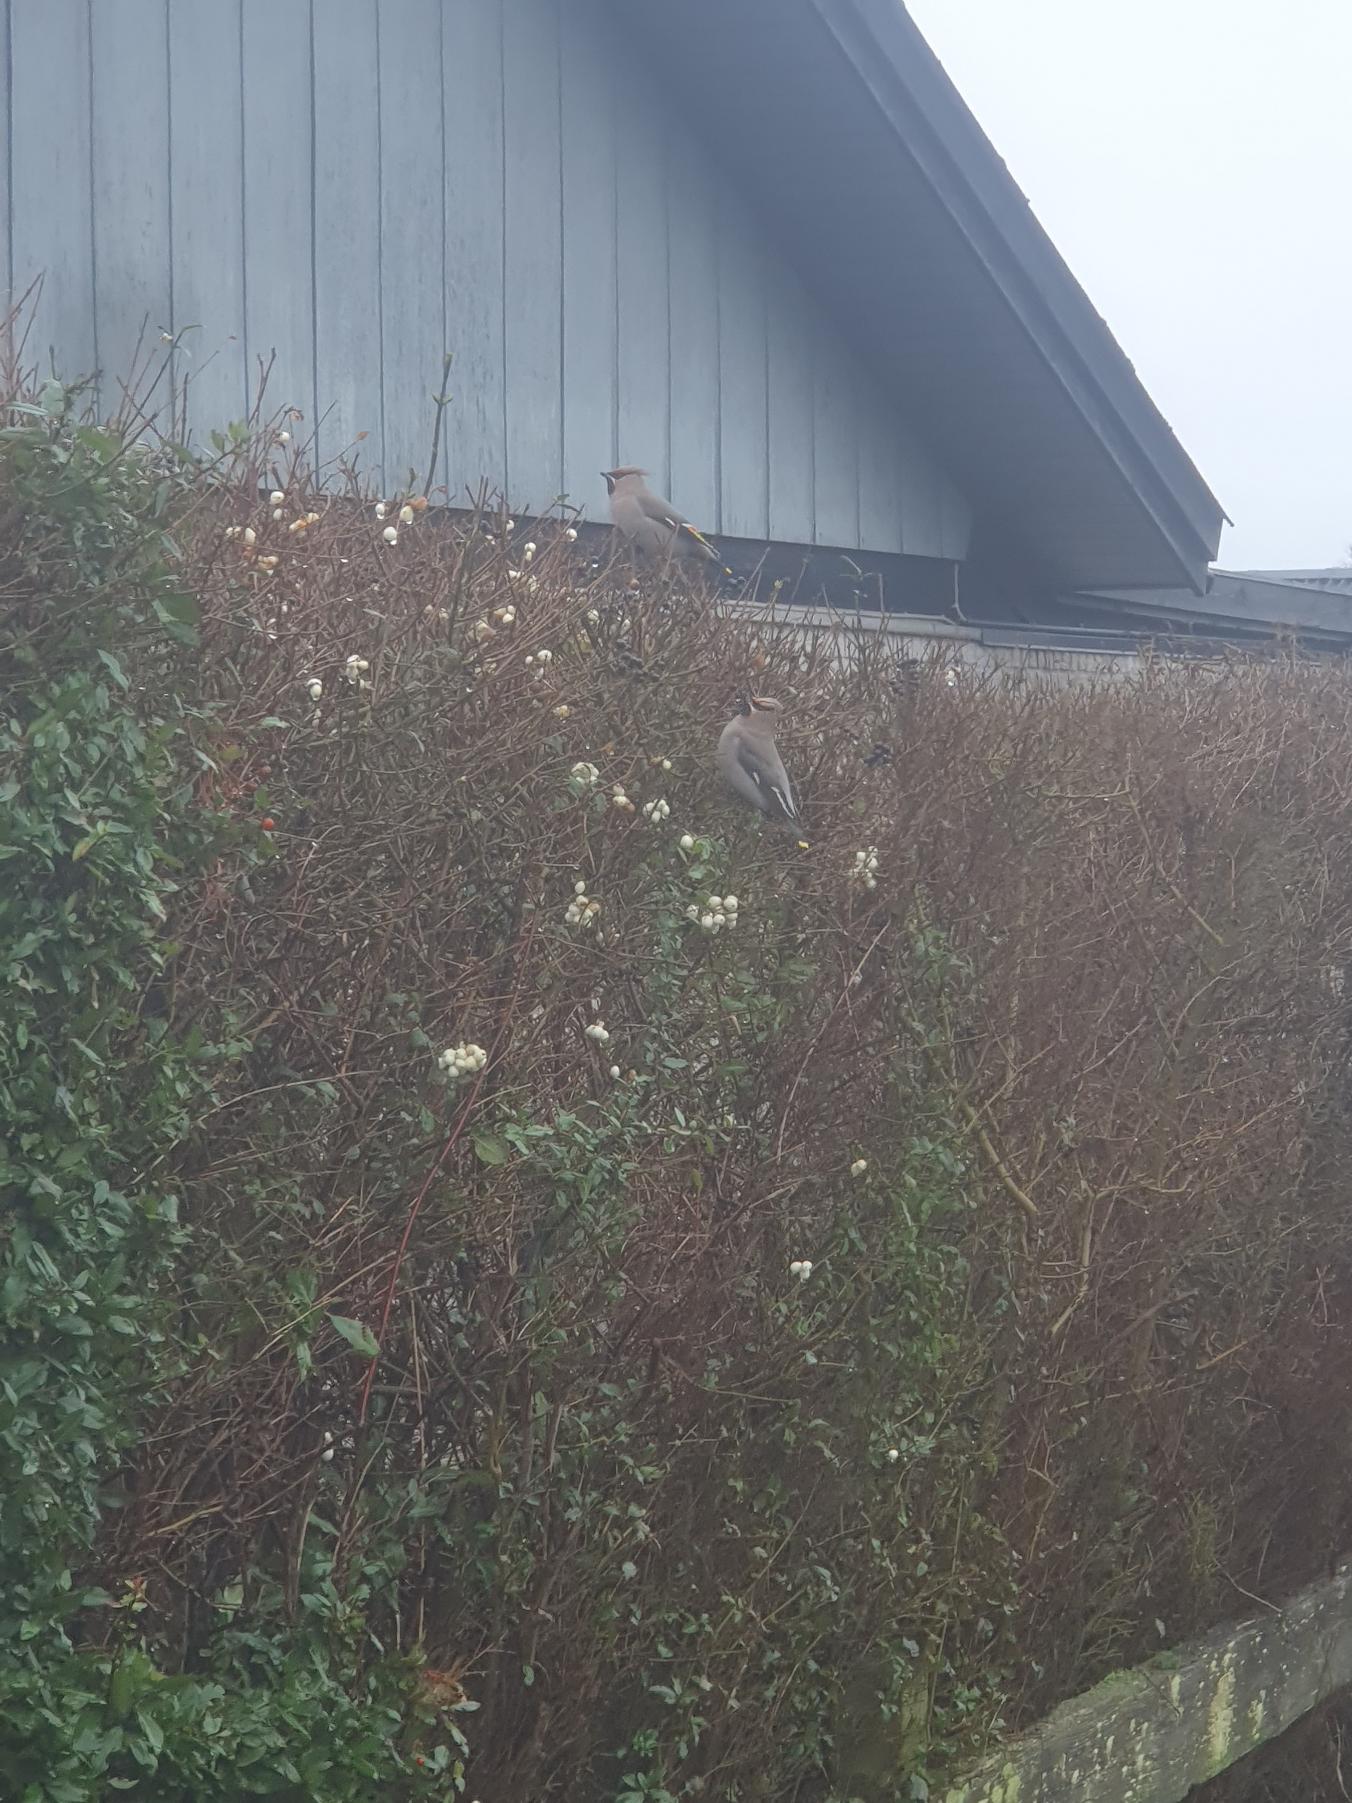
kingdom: Animalia
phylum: Chordata
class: Aves
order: Passeriformes
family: Bombycillidae
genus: Bombycilla
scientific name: Bombycilla garrulus
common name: Silkehale
